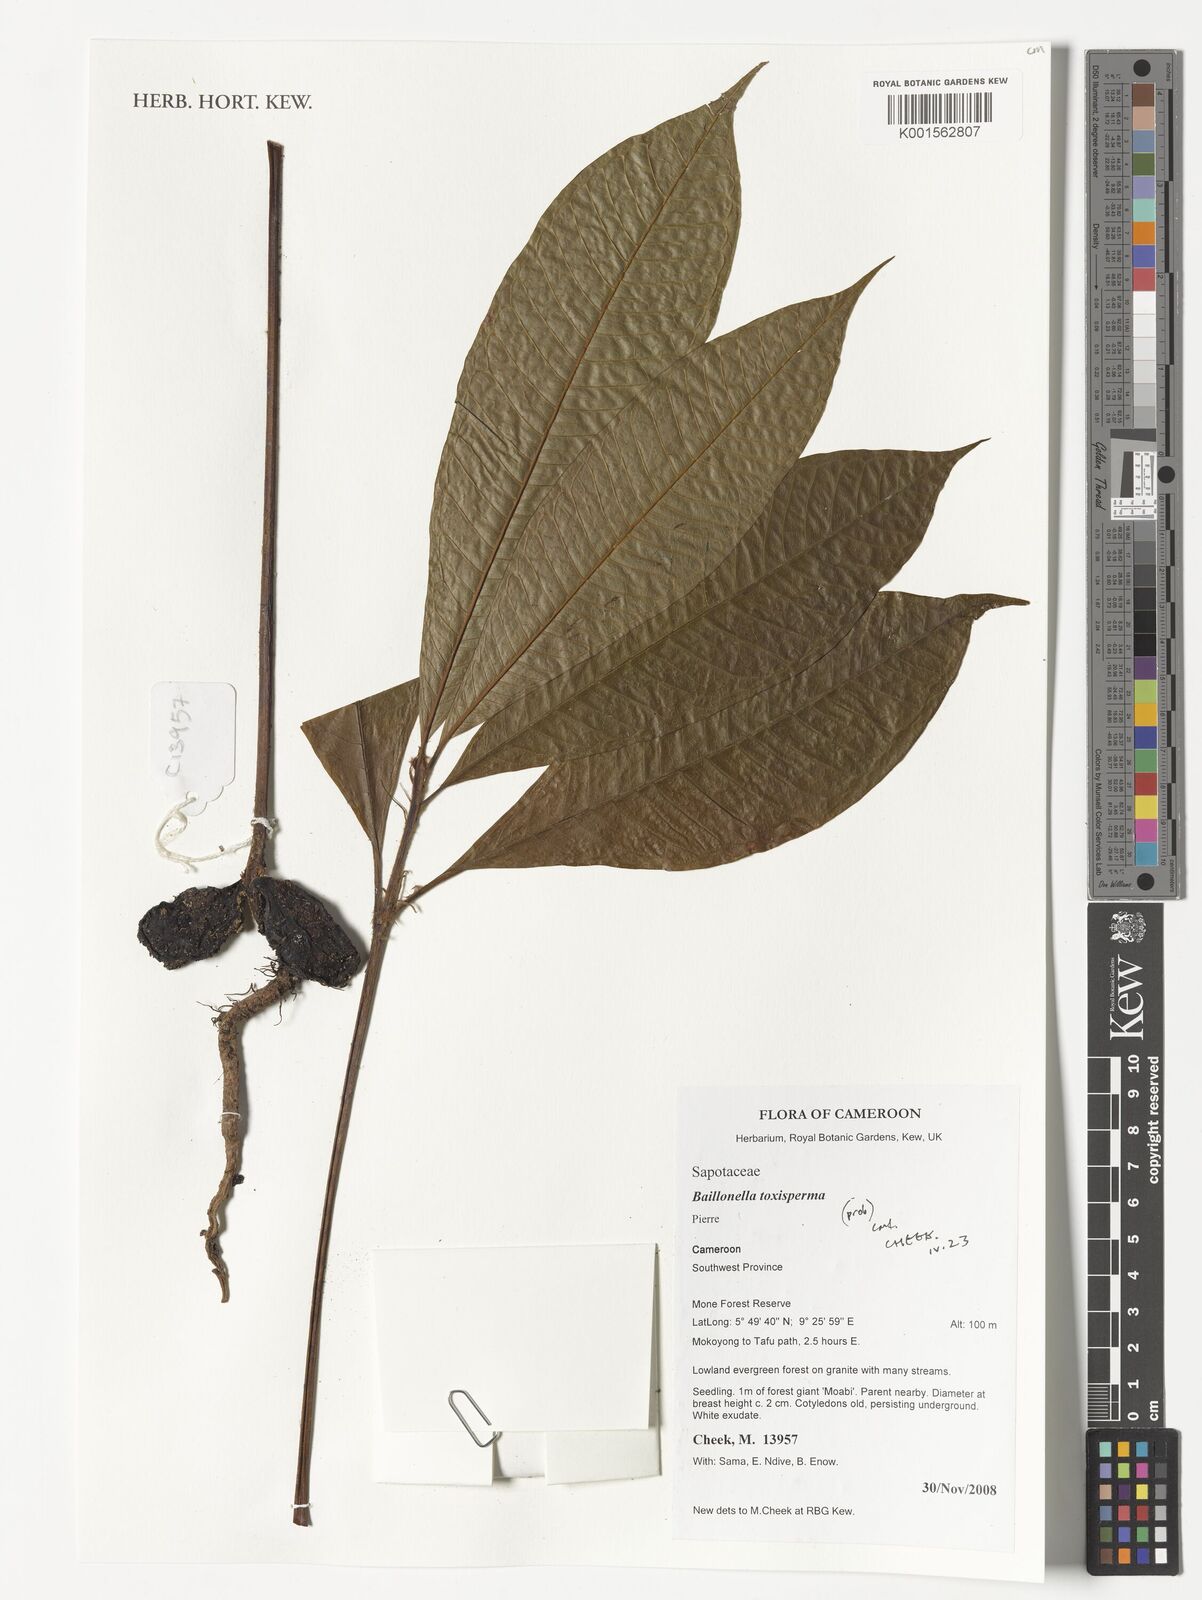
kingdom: Plantae
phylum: Tracheophyta
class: Magnoliopsida
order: Ericales
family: Sapotaceae
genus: Baillonella
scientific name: Baillonella toxisperma
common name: African pearwood
